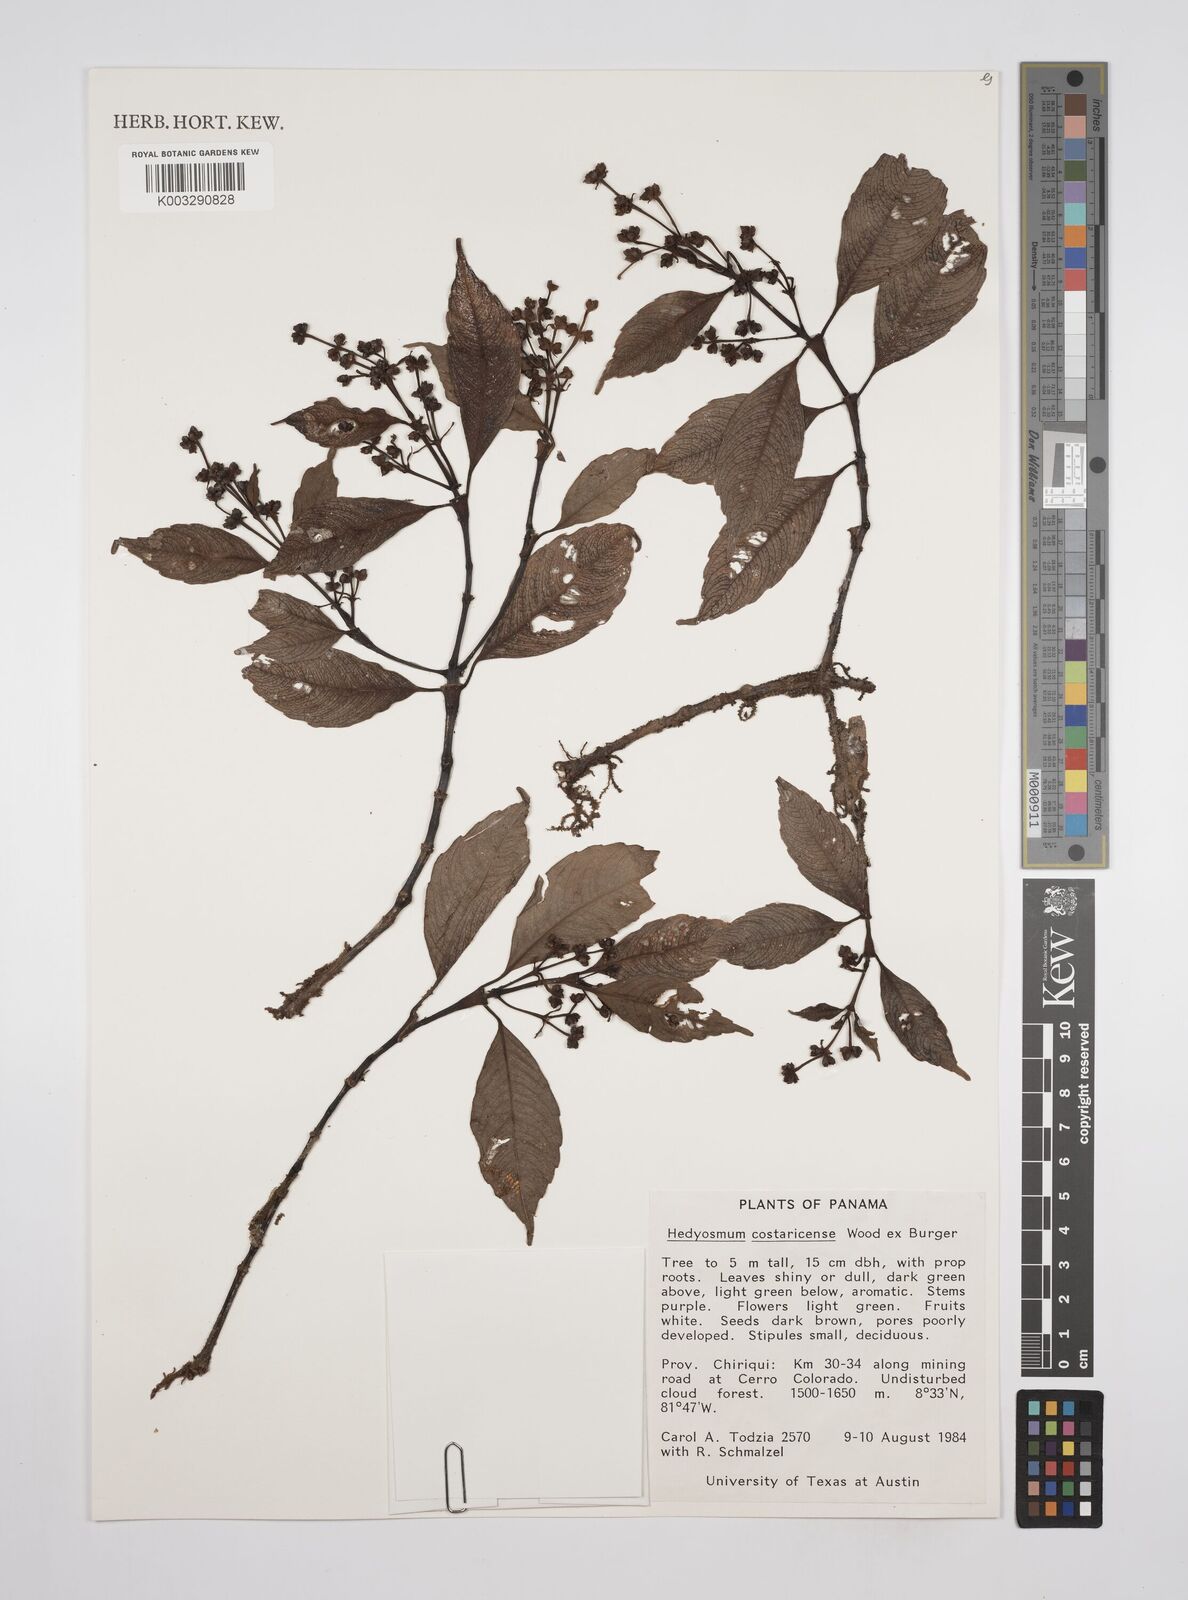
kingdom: Plantae
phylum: Tracheophyta
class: Magnoliopsida
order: Chloranthales
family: Chloranthaceae
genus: Hedyosmum
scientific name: Hedyosmum costaricense
